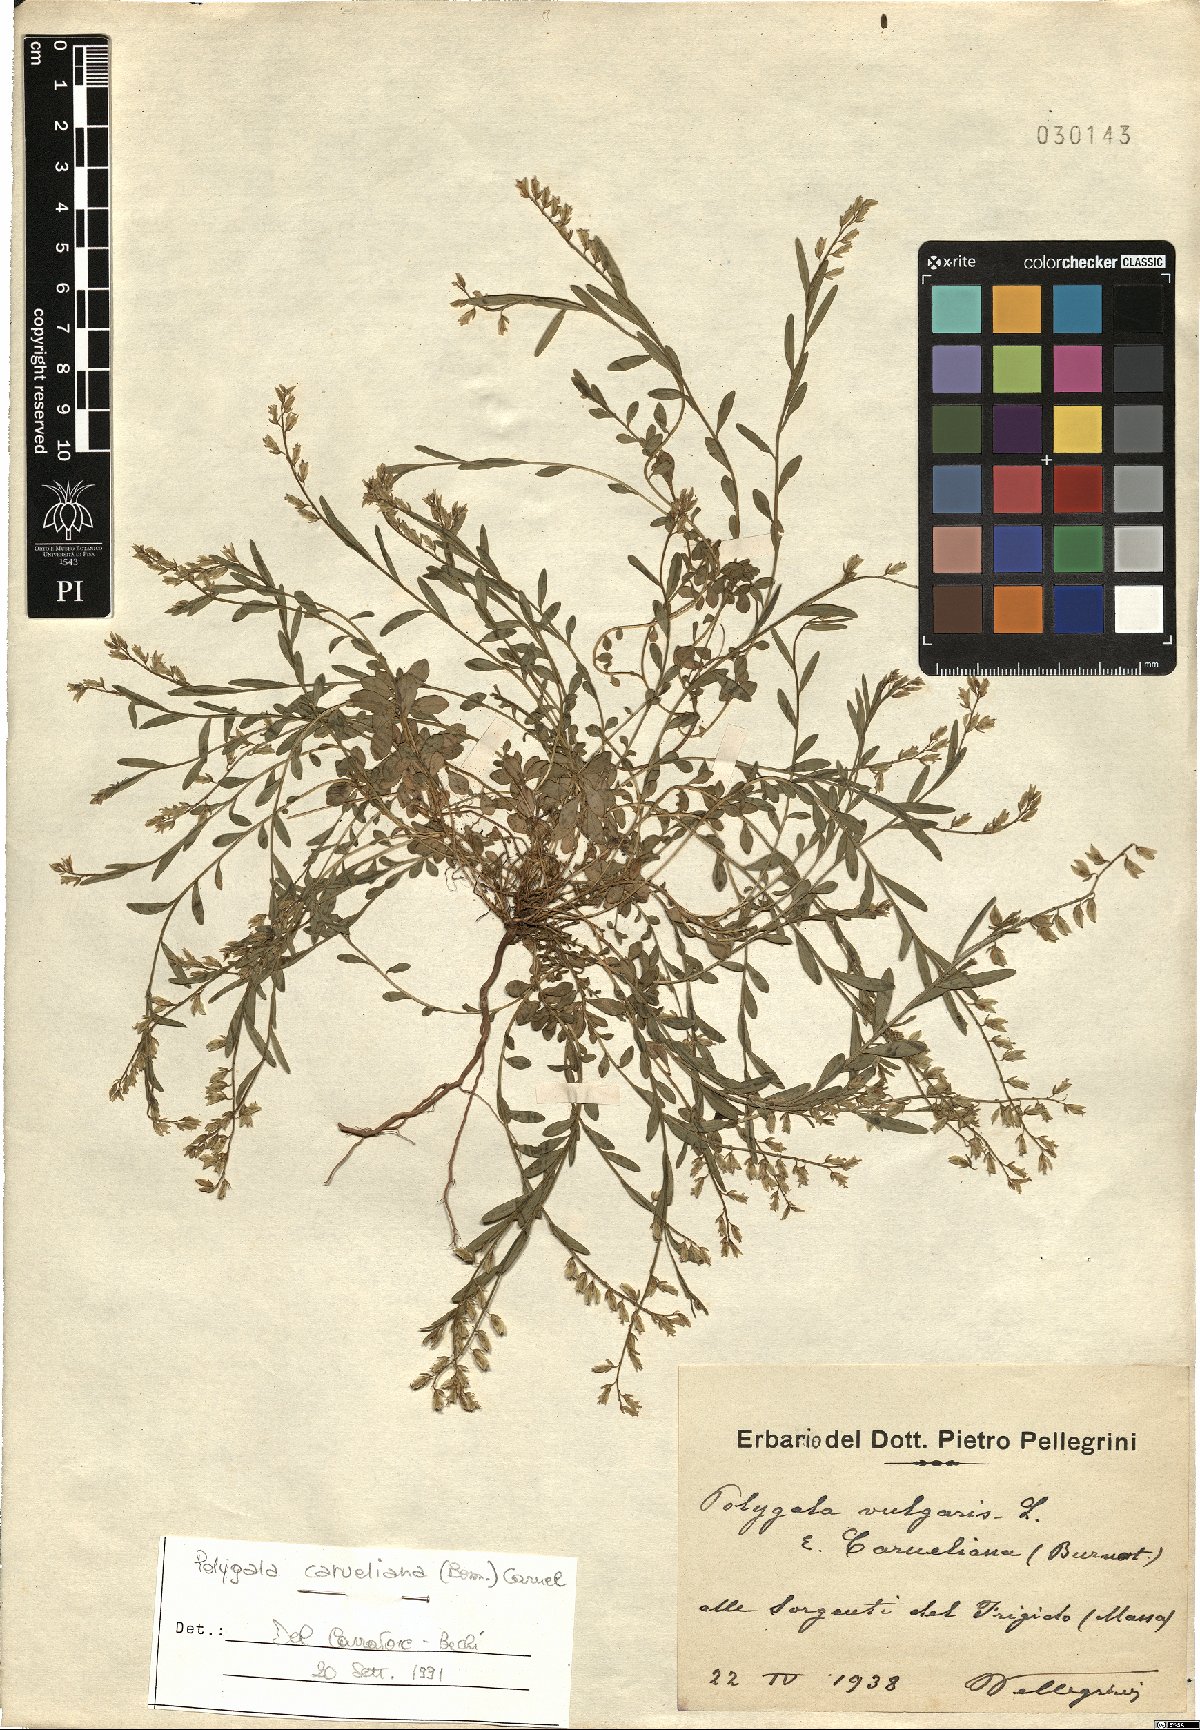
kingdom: Plantae
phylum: Tracheophyta
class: Magnoliopsida
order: Fabales
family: Polygalaceae
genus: Polygala
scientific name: Polygala carueliana
